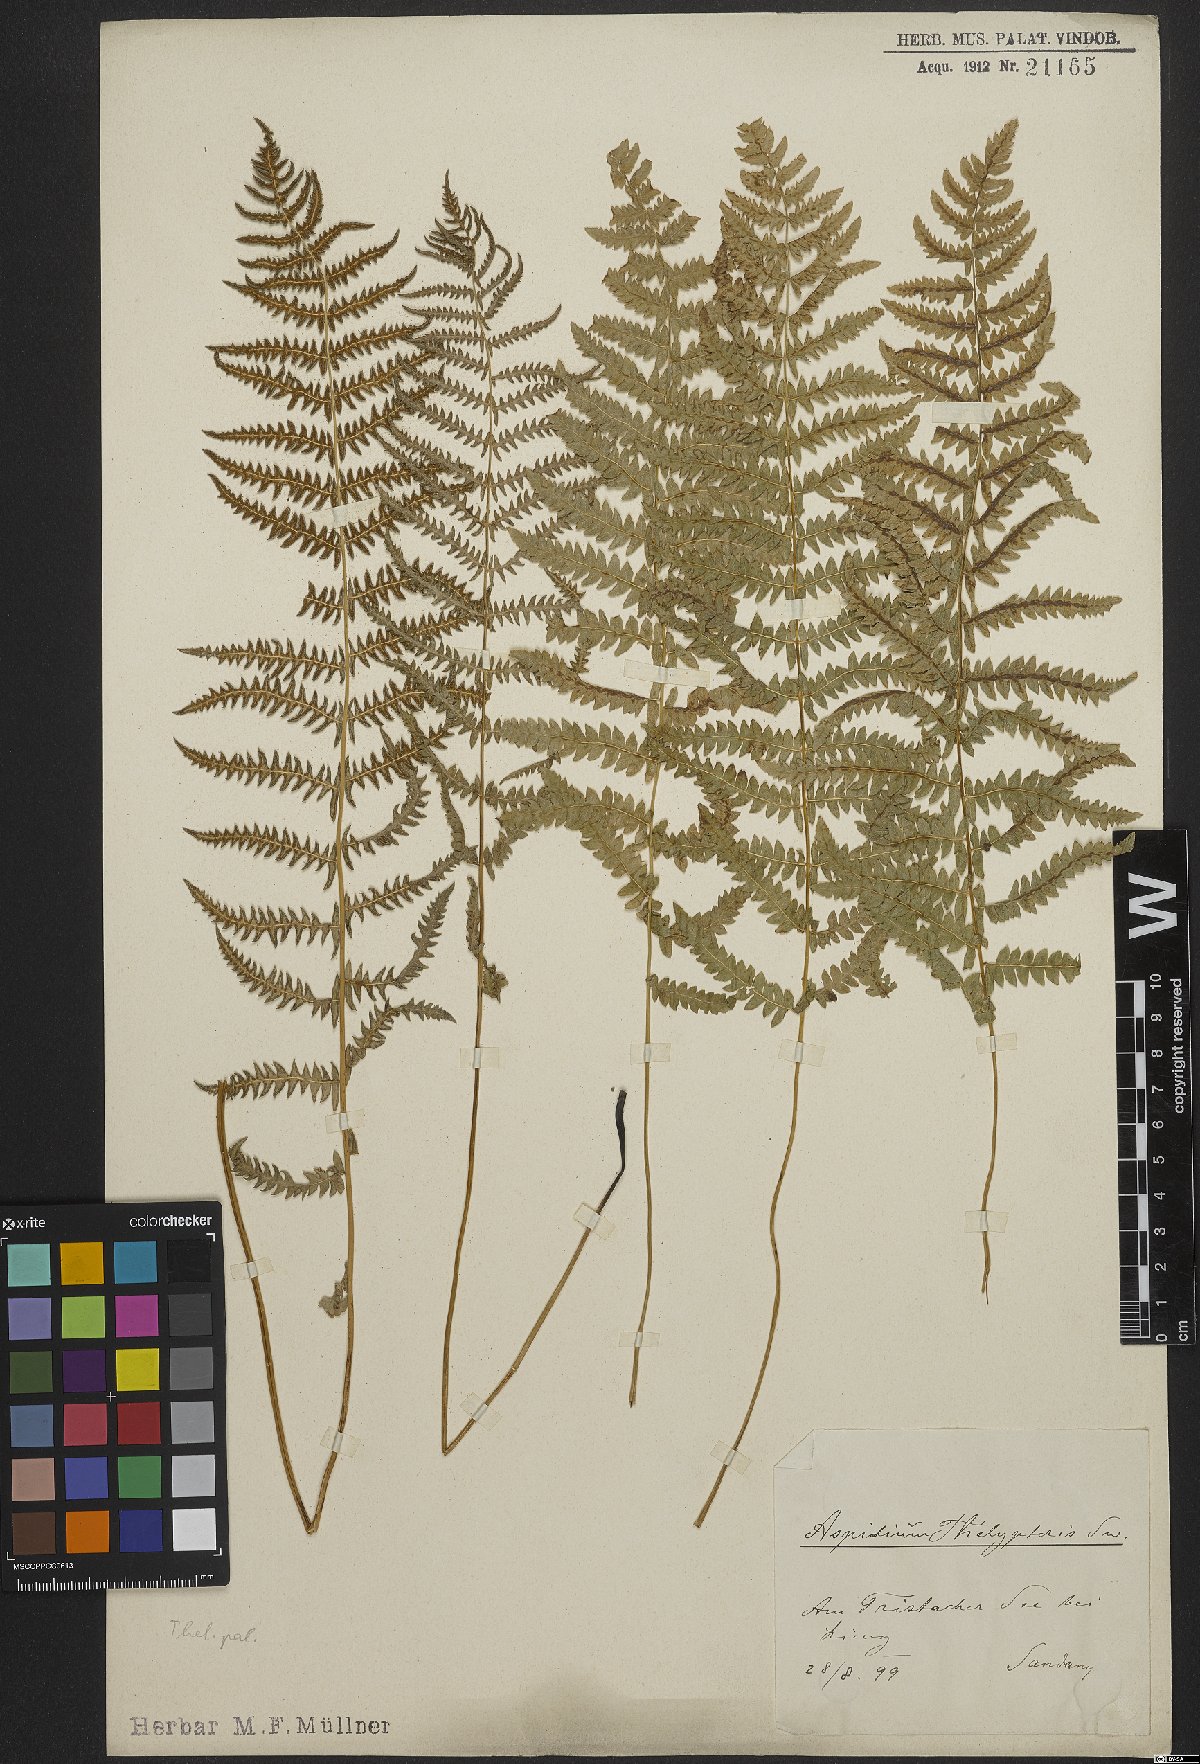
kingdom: Plantae
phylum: Tracheophyta
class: Polypodiopsida
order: Polypodiales
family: Thelypteridaceae
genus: Thelypteris
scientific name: Thelypteris palustris
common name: Marsh fern
